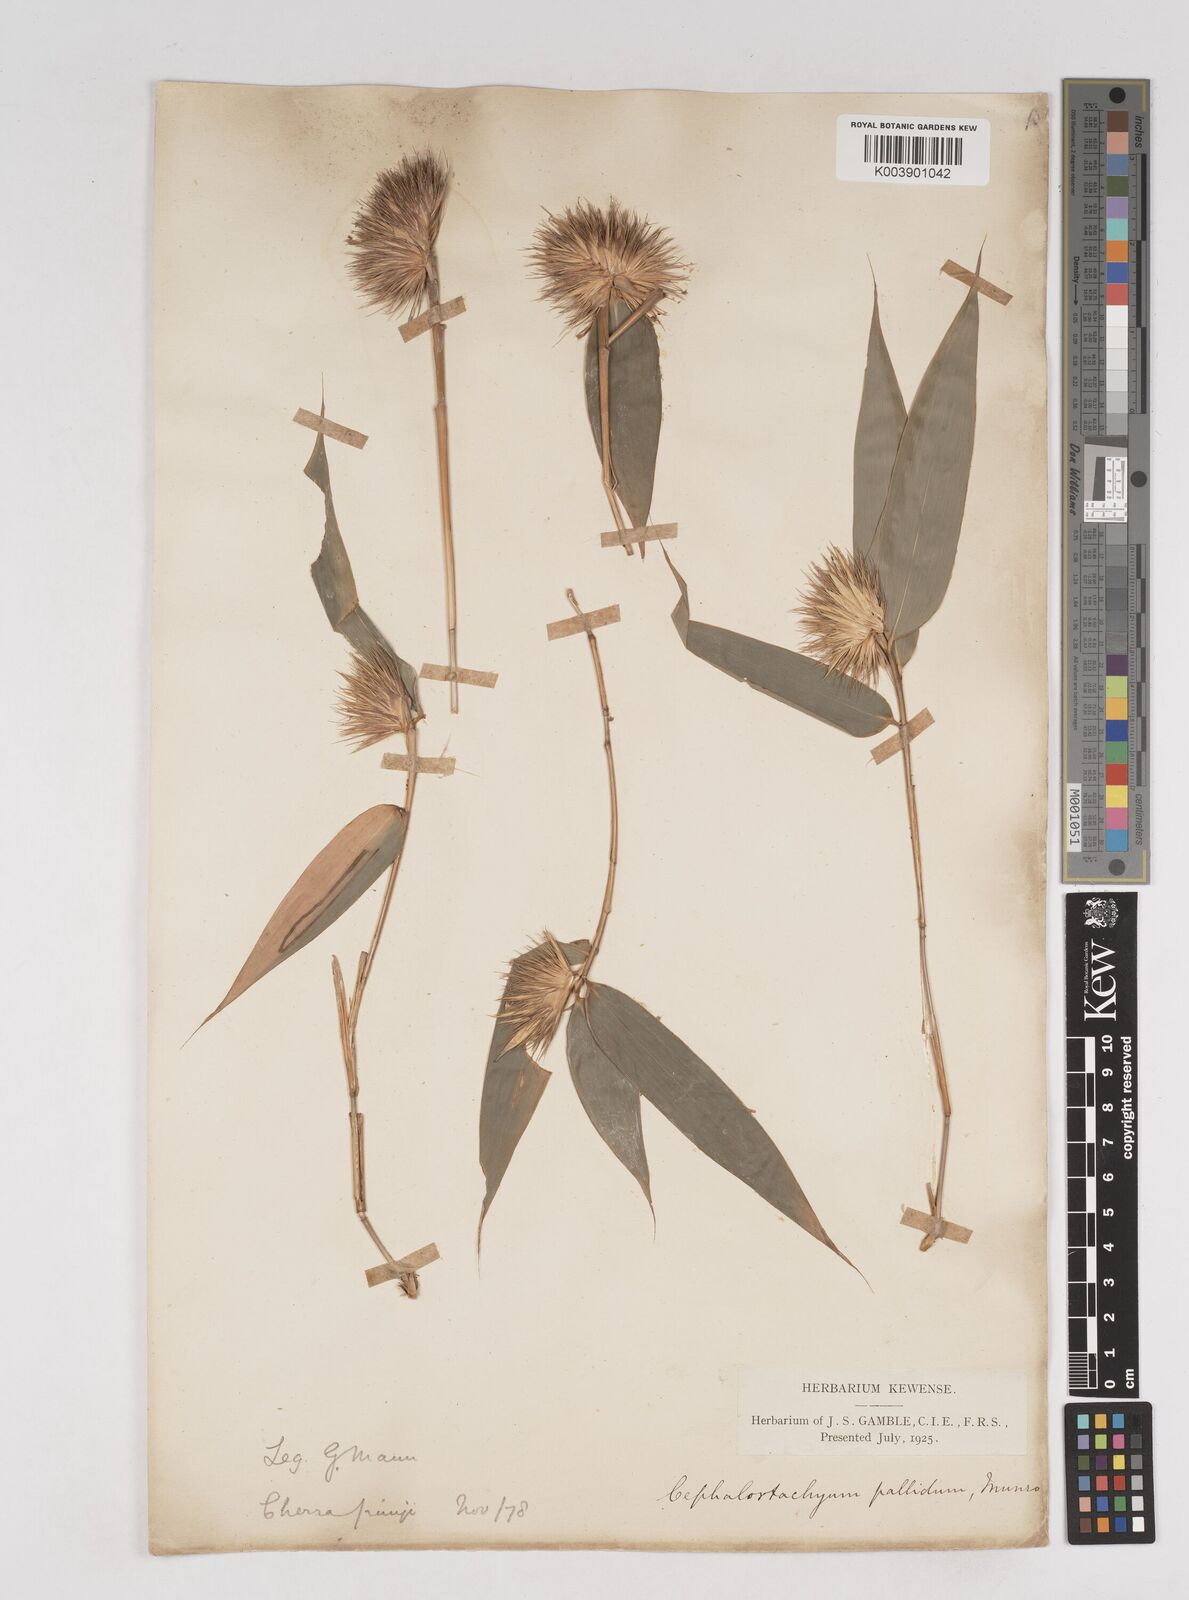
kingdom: Plantae
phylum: Tracheophyta
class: Liliopsida
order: Poales
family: Poaceae
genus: Cephalostachyum
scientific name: Cephalostachyum pallidum
